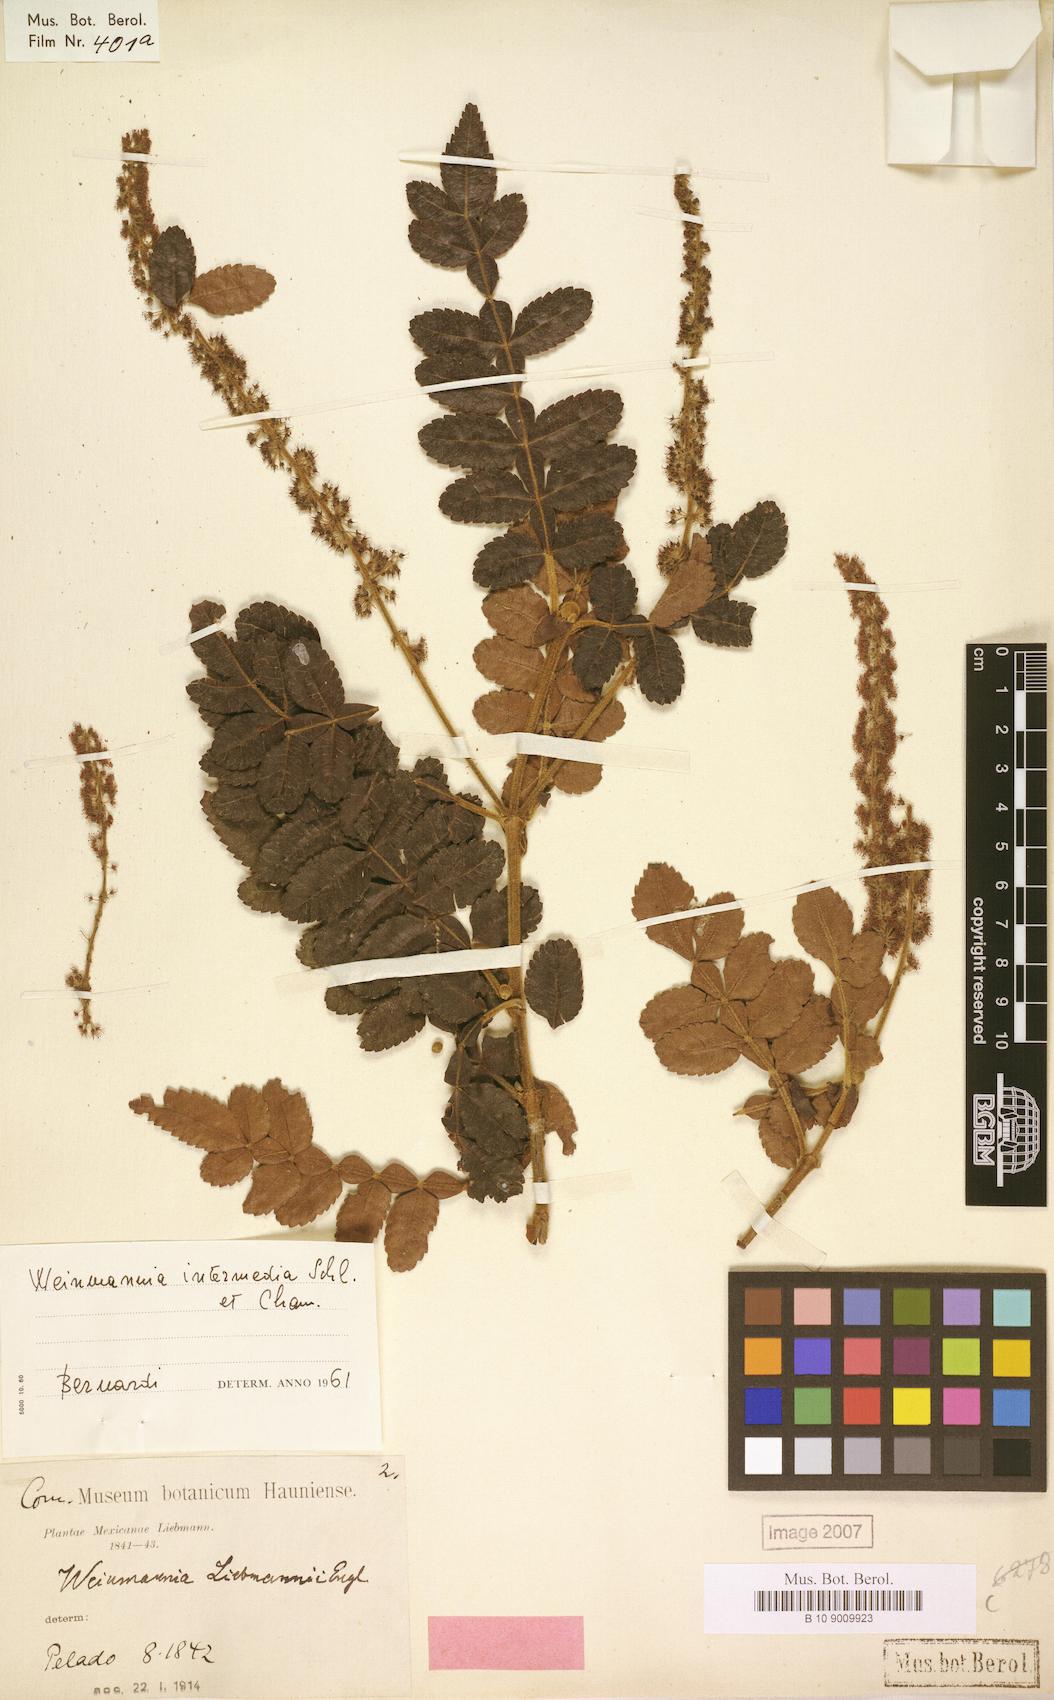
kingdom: Plantae
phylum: Tracheophyta
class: Magnoliopsida
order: Oxalidales
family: Cunoniaceae
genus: Weinmannia
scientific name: Weinmannia pinnata
